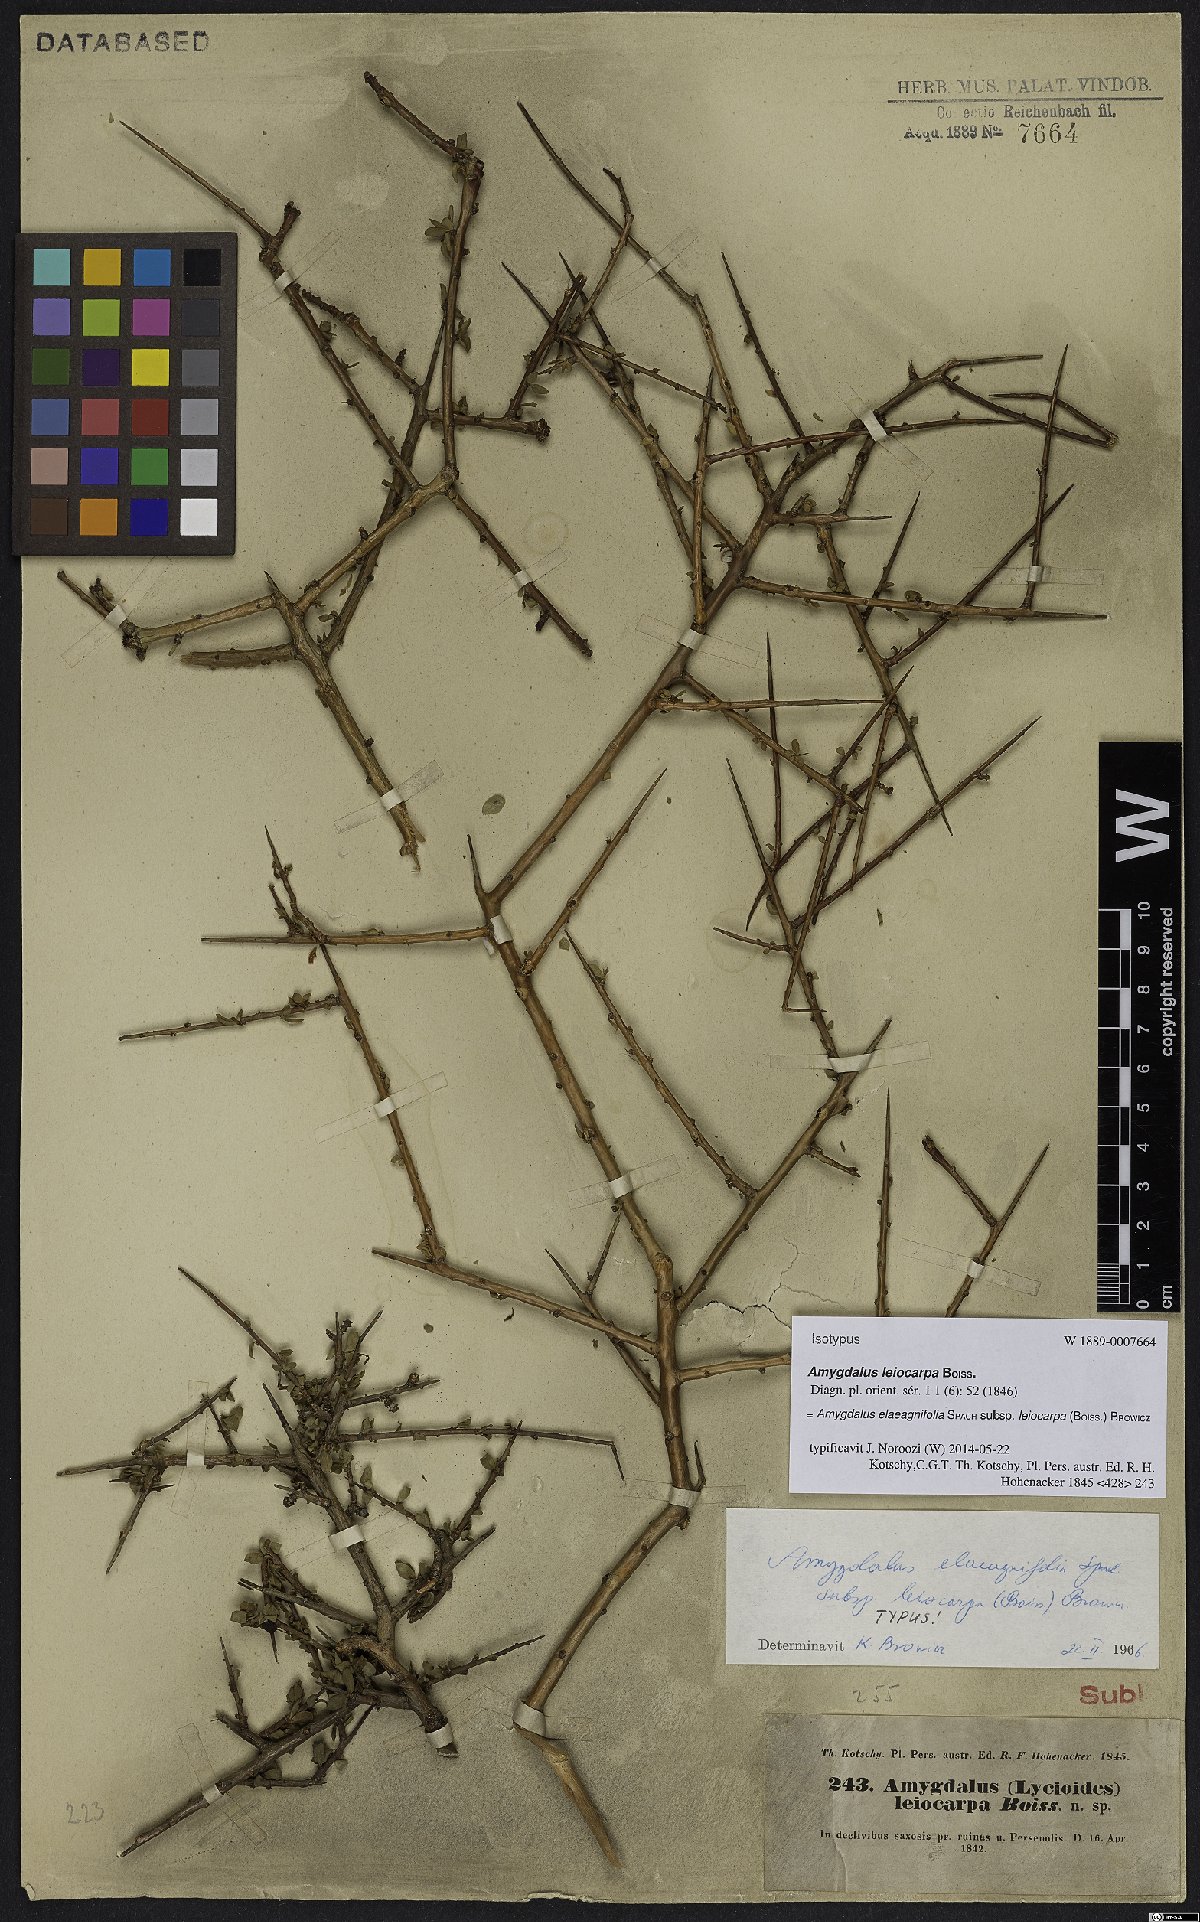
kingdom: Plantae
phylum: Tracheophyta
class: Magnoliopsida
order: Rosales
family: Rosaceae
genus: Prunus
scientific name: Prunus elaeagnifolia
